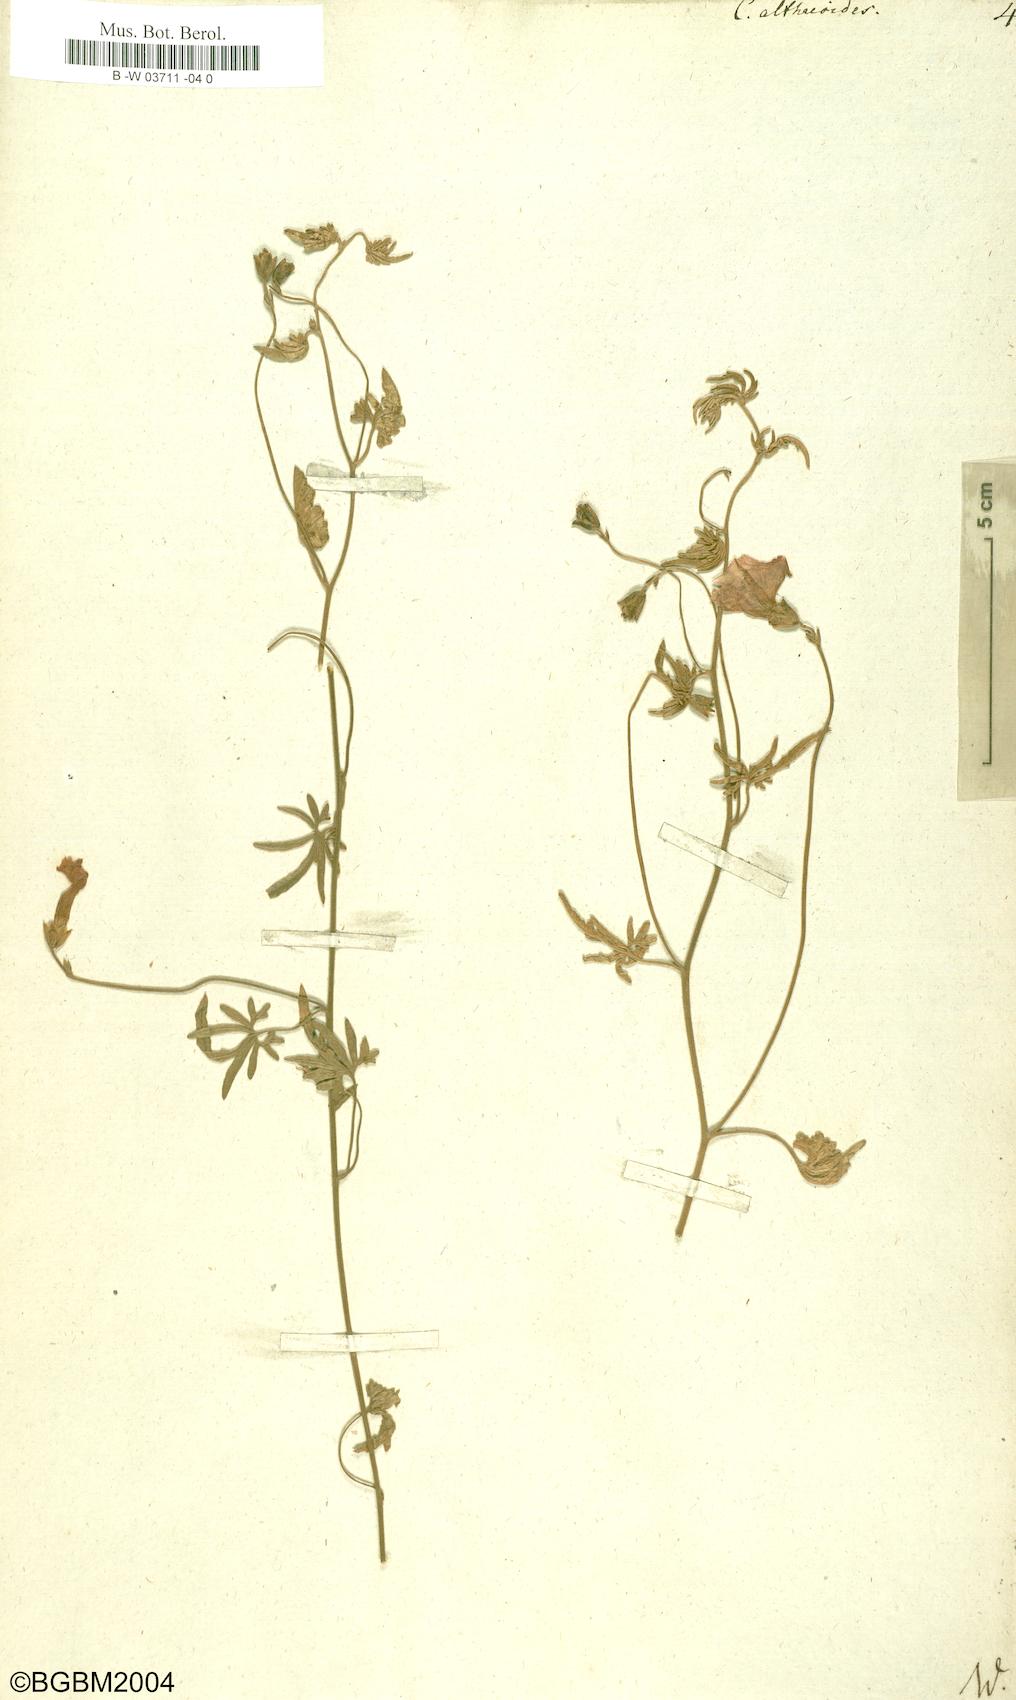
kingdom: Plantae
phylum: Tracheophyta
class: Magnoliopsida
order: Solanales
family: Convolvulaceae
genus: Convolvulus
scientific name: Convolvulus althaeoides
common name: Mallow bindweed
